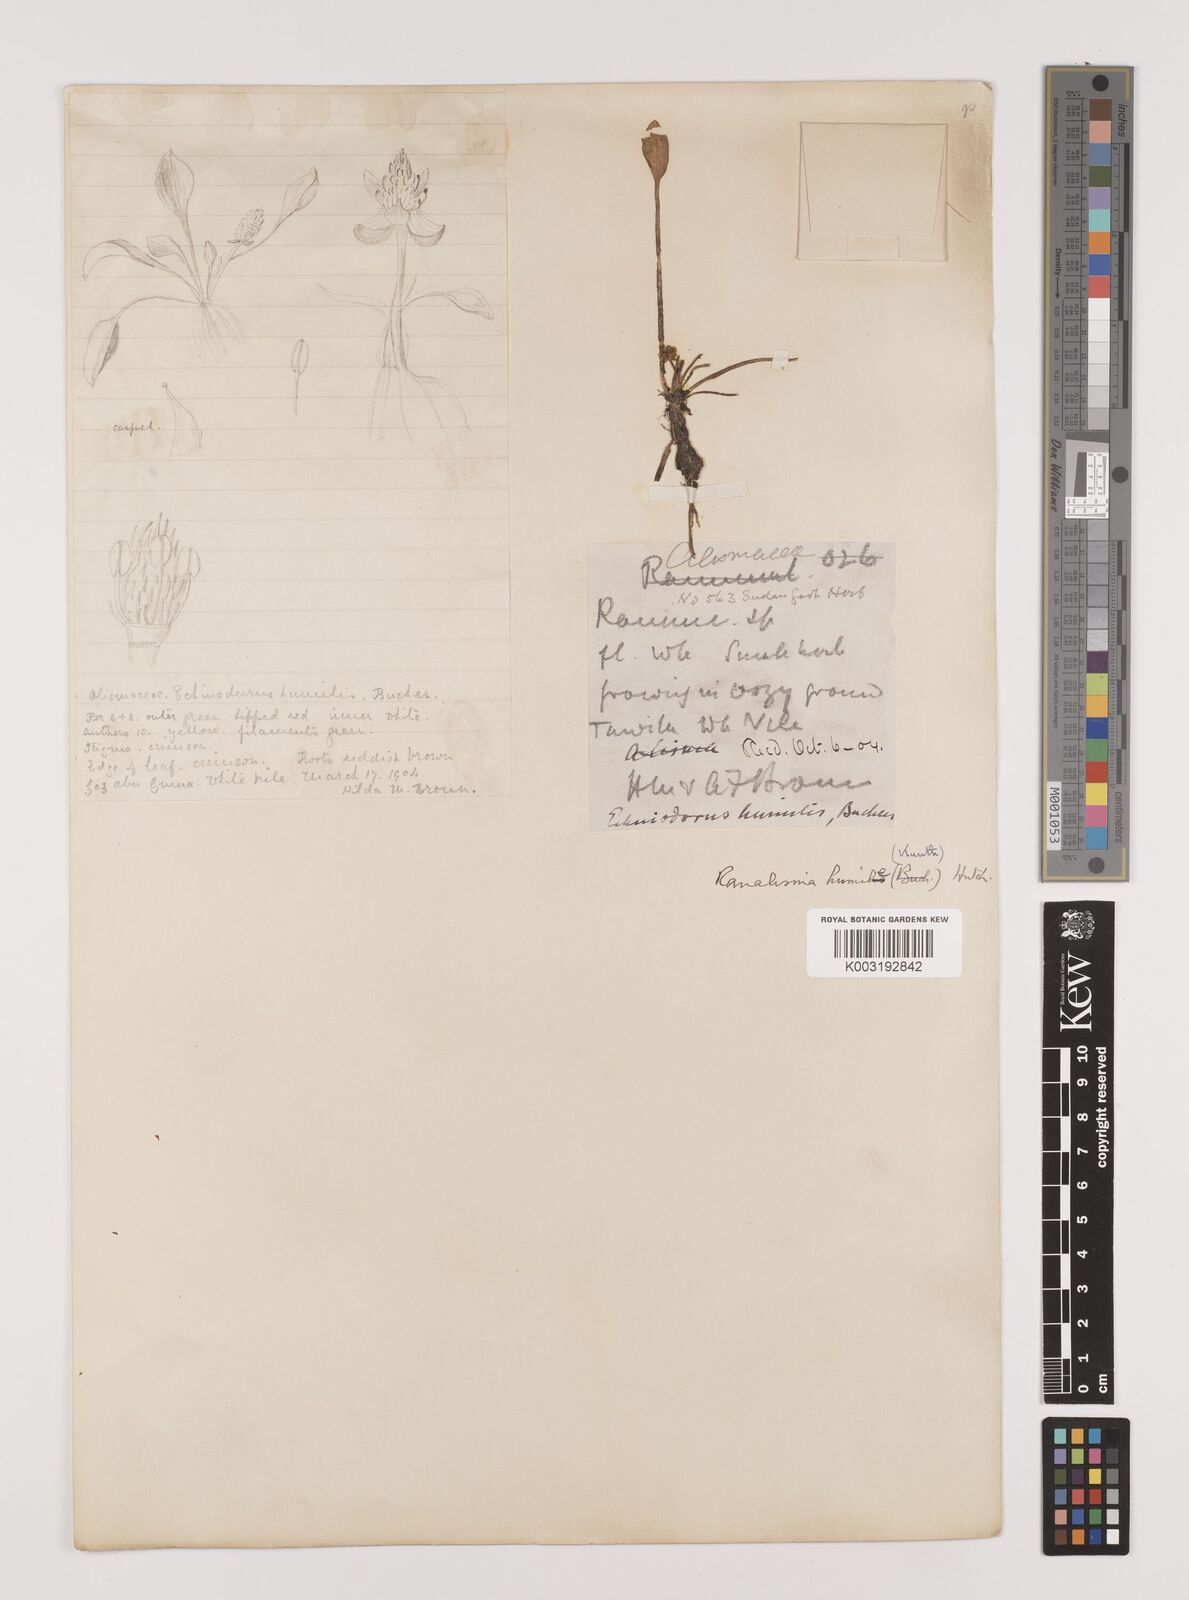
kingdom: Plantae
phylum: Tracheophyta
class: Liliopsida
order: Alismatales
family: Alismataceae
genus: Ranalisma
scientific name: Ranalisma humile
